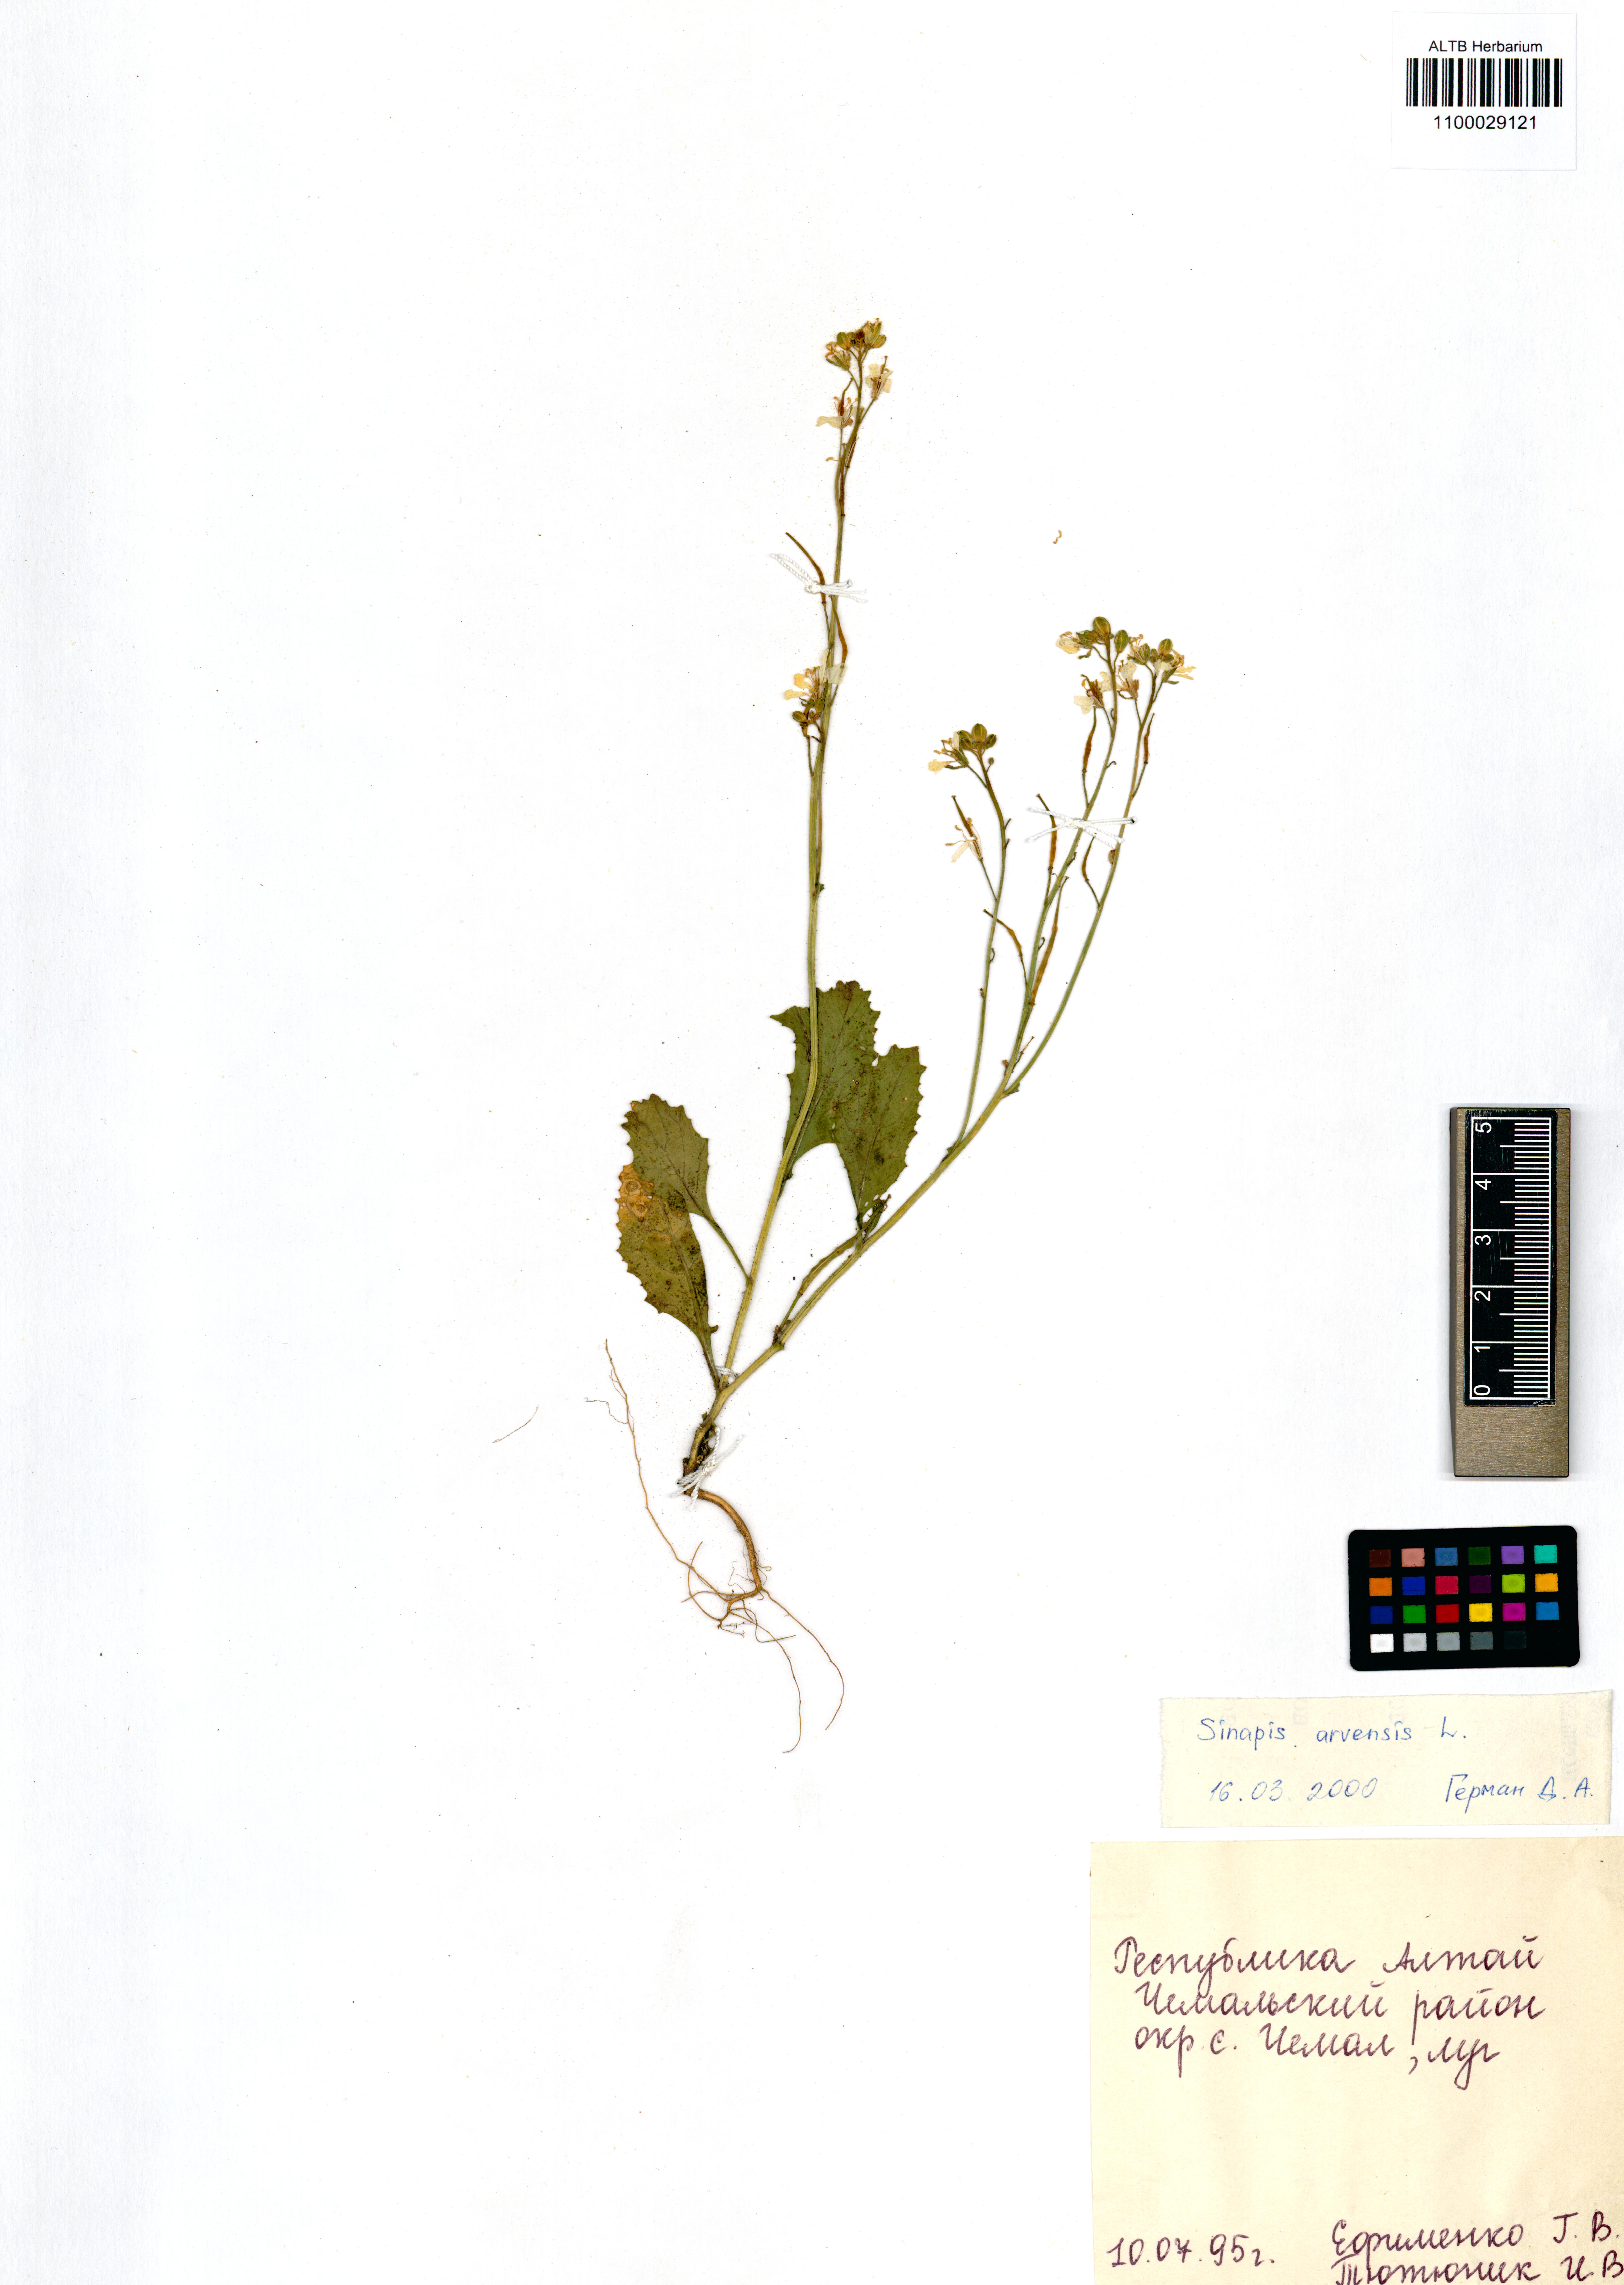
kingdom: Plantae
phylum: Tracheophyta
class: Magnoliopsida
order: Brassicales
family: Brassicaceae
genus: Sinapis
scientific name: Sinapis arvensis
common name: Charlock
